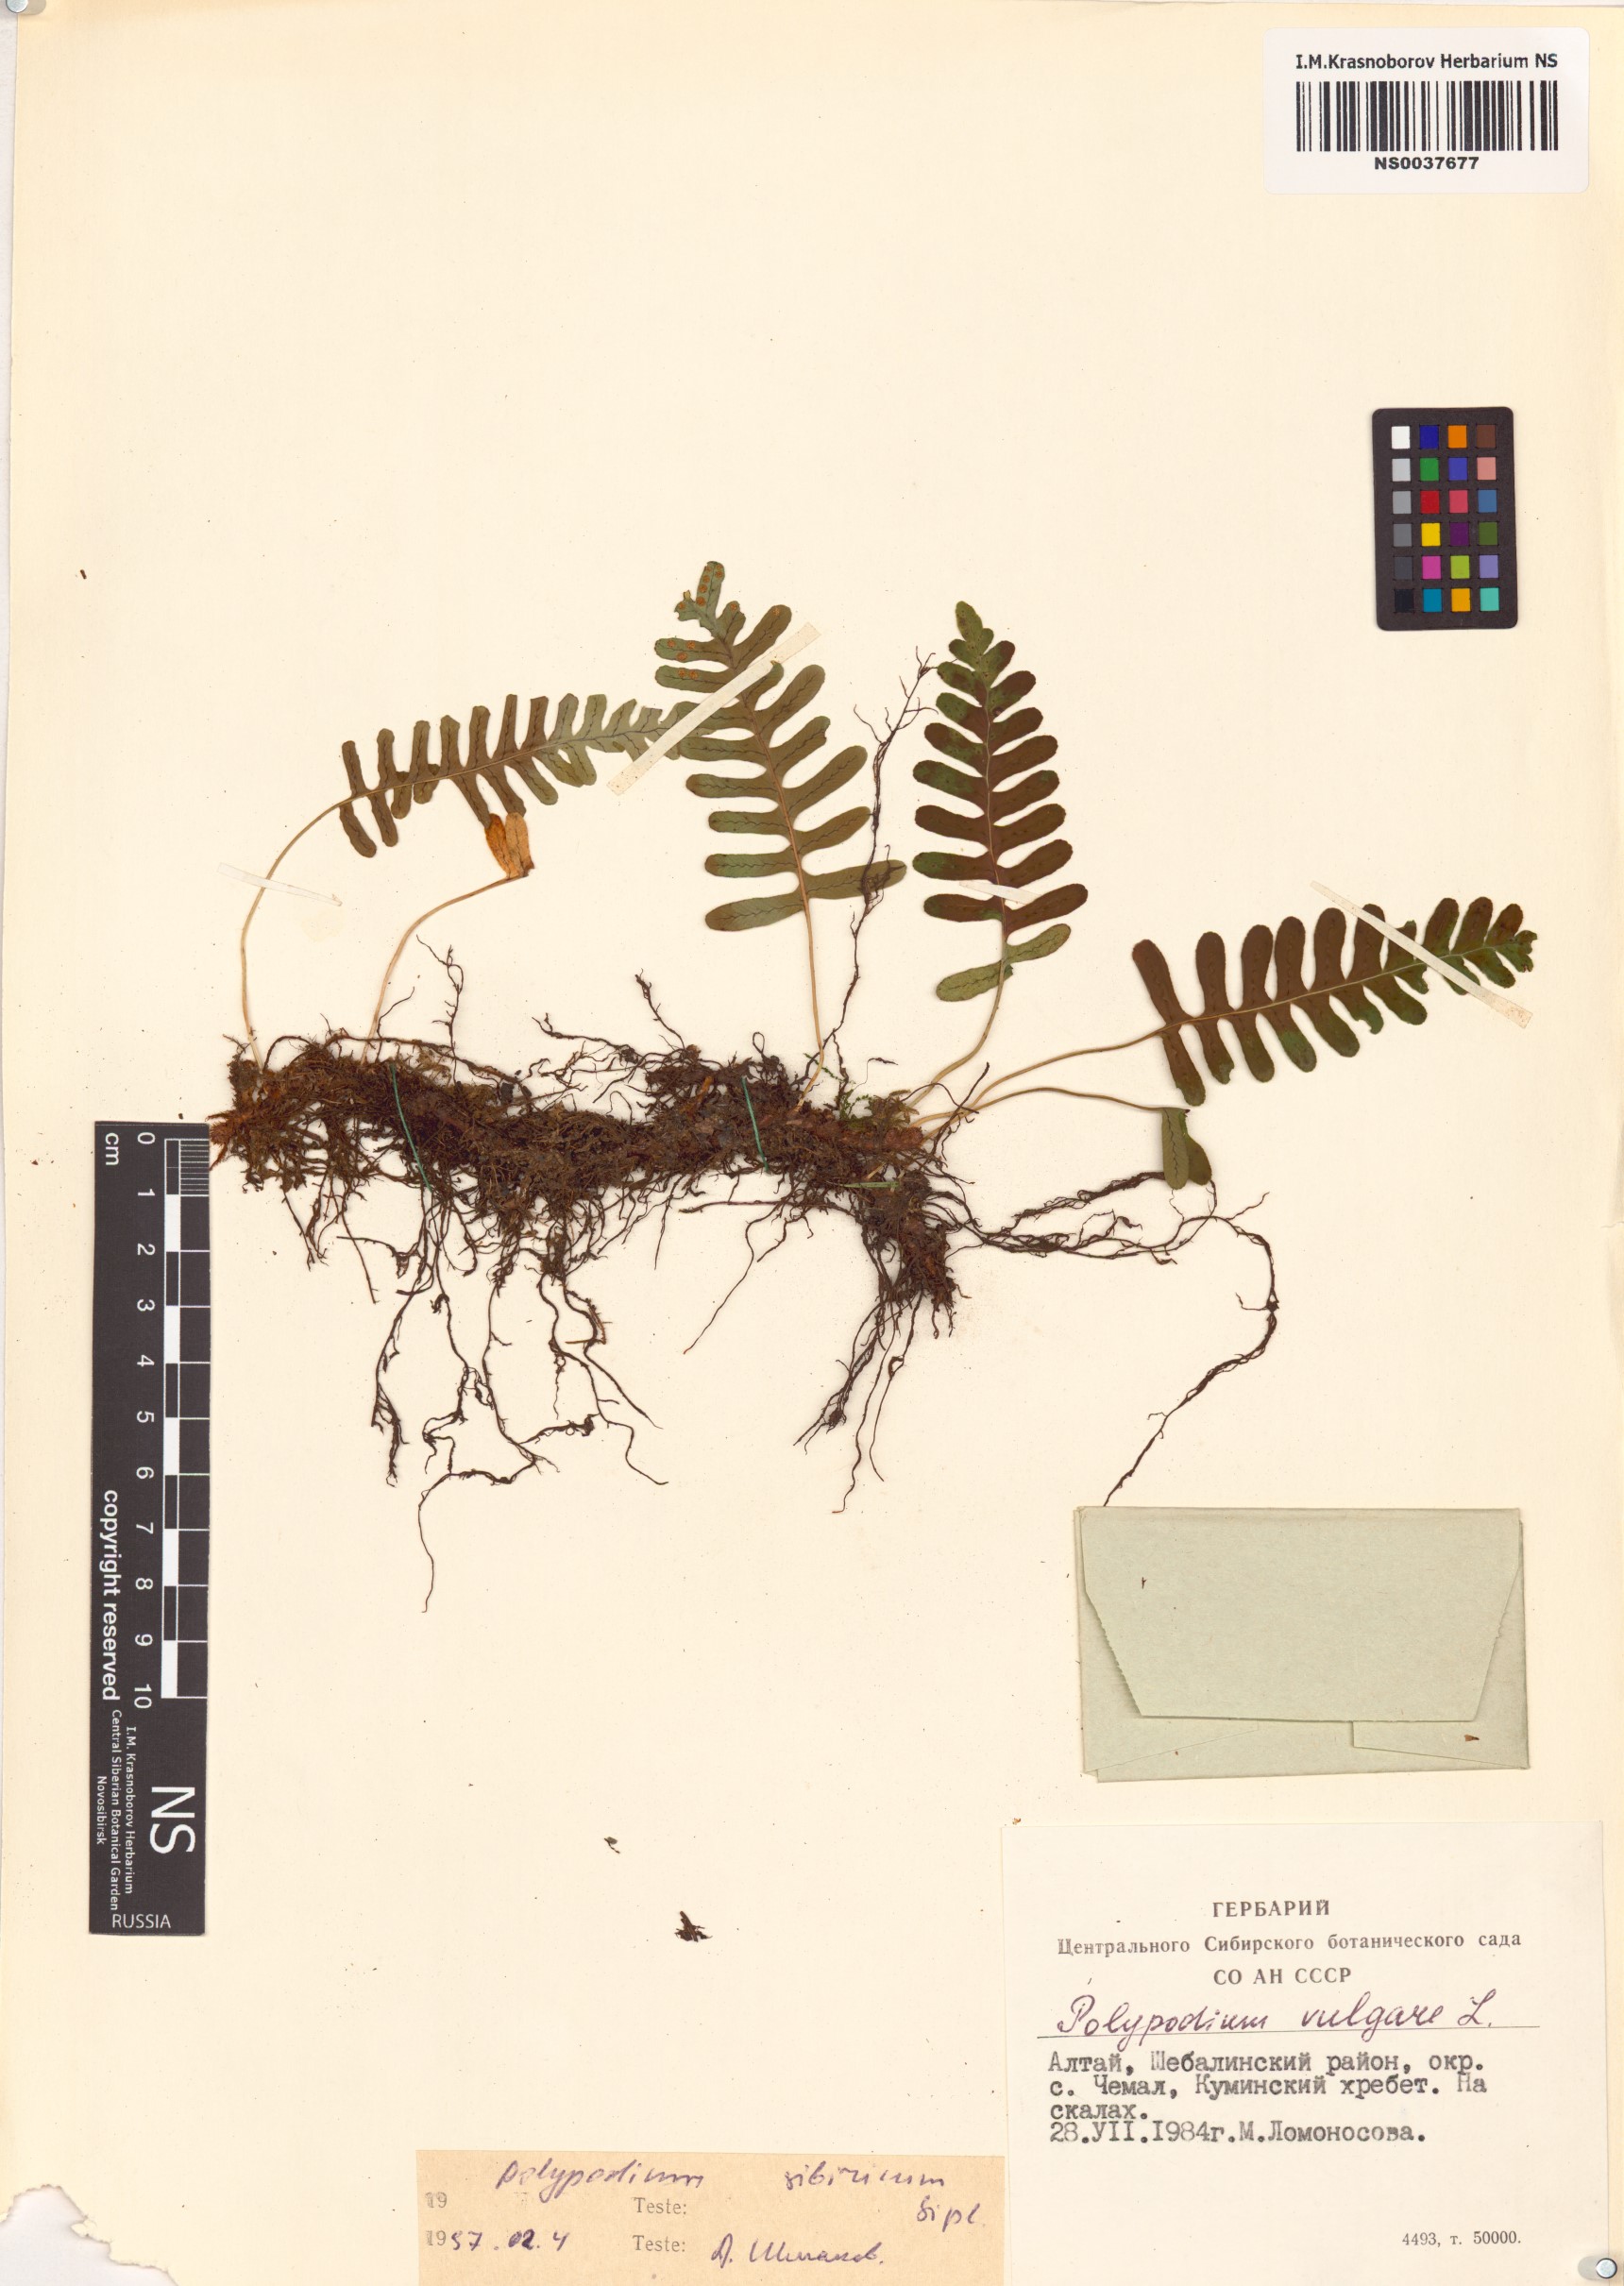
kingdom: Plantae
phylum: Tracheophyta
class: Polypodiopsida
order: Polypodiales
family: Polypodiaceae
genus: Polypodium
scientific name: Polypodium sibiricum
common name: Siberian polypody
